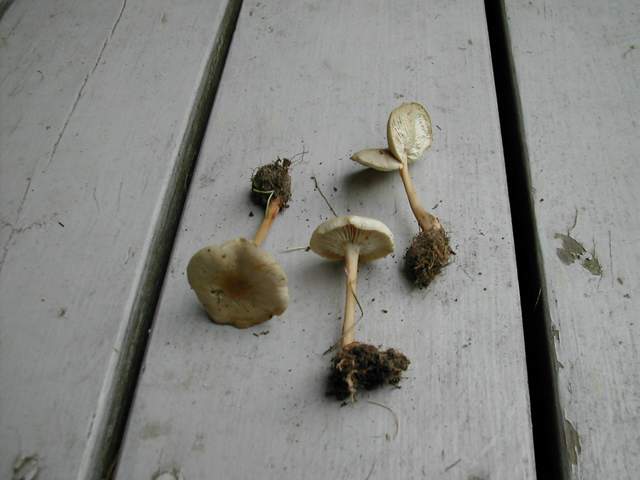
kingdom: Fungi
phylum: Basidiomycota
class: Agaricomycetes
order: Agaricales
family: Omphalotaceae
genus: Gymnopus
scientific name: Gymnopus aquosus
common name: bleg fladhat
